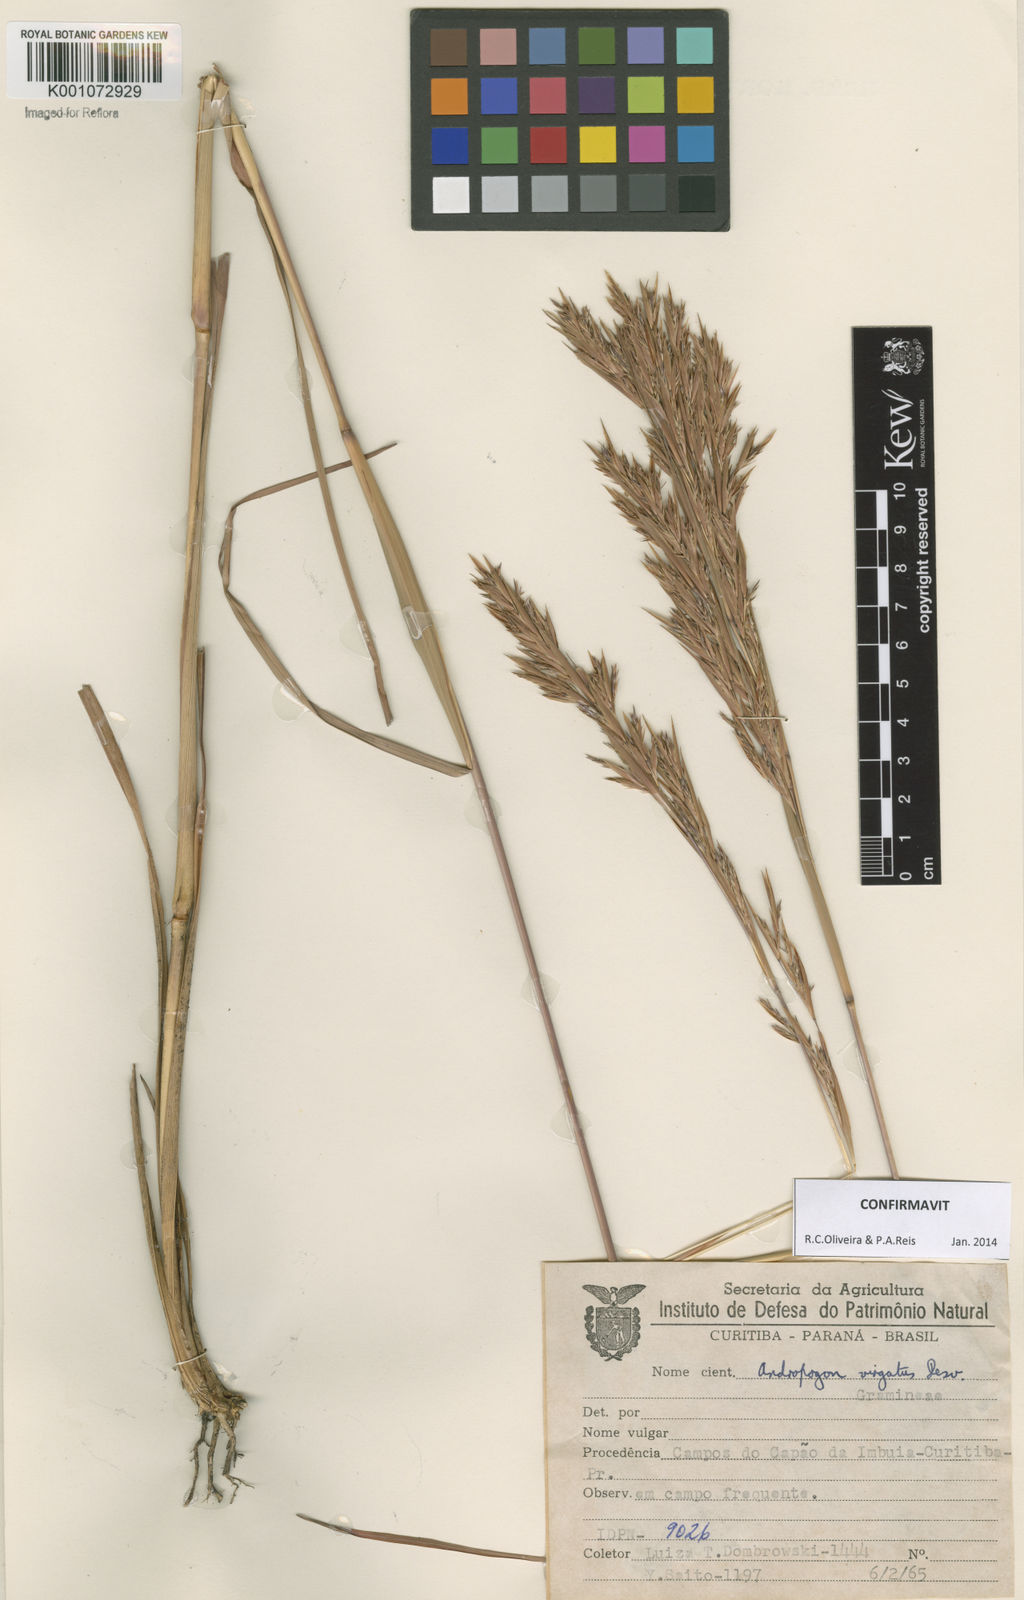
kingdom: Plantae
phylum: Tracheophyta
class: Liliopsida
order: Poales
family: Poaceae
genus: Andropogon
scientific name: Andropogon virgatus
